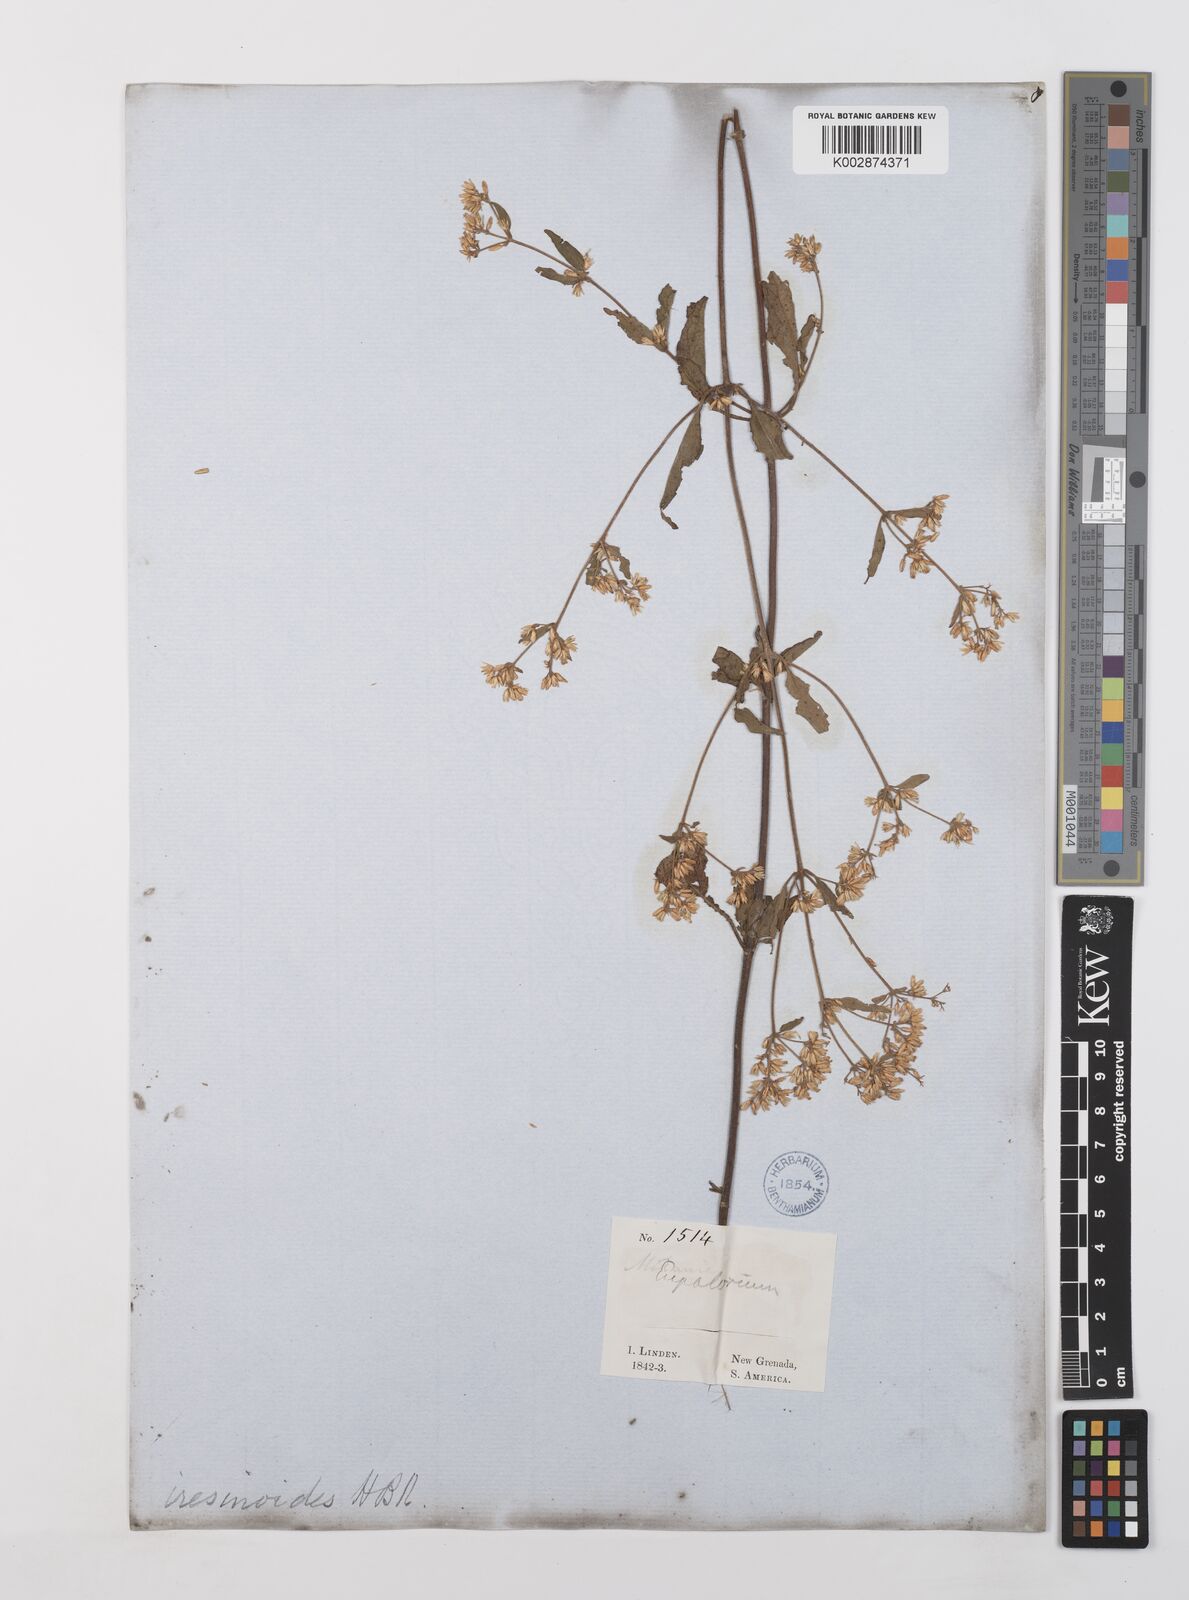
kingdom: Plantae
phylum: Tracheophyta
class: Magnoliopsida
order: Asterales
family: Asteraceae
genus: Condylidium
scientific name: Condylidium iresinoides
